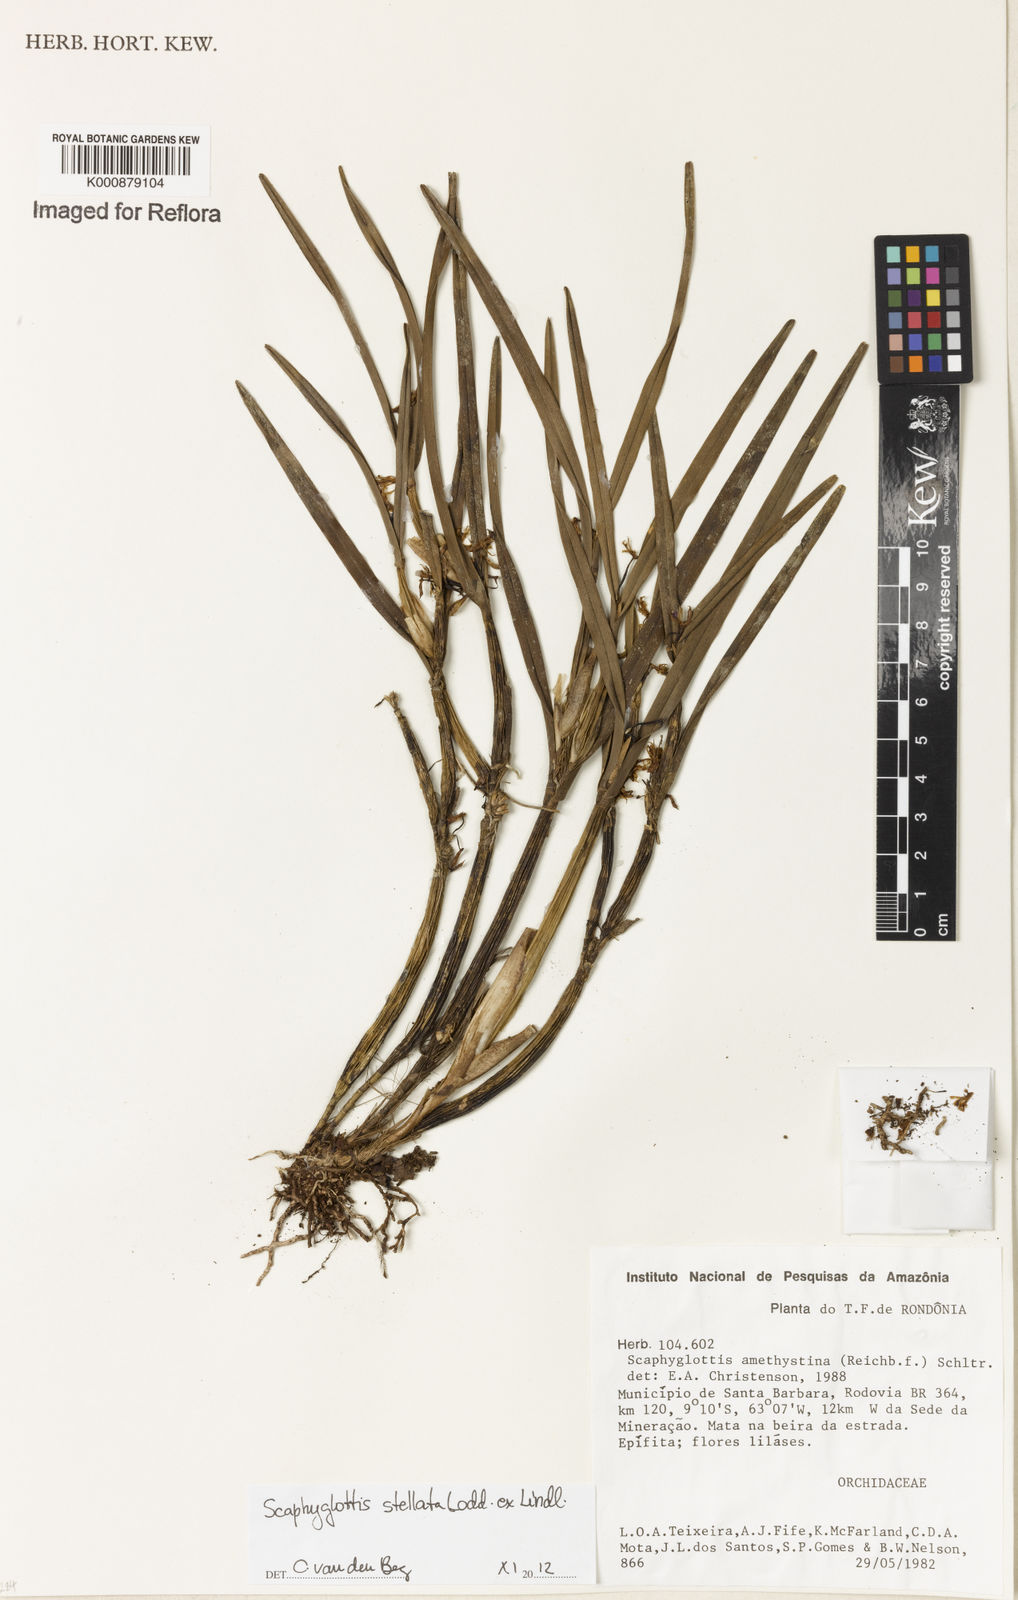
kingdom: Plantae
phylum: Tracheophyta
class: Liliopsida
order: Asparagales
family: Orchidaceae
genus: Scaphyglottis
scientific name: Scaphyglottis stellata
